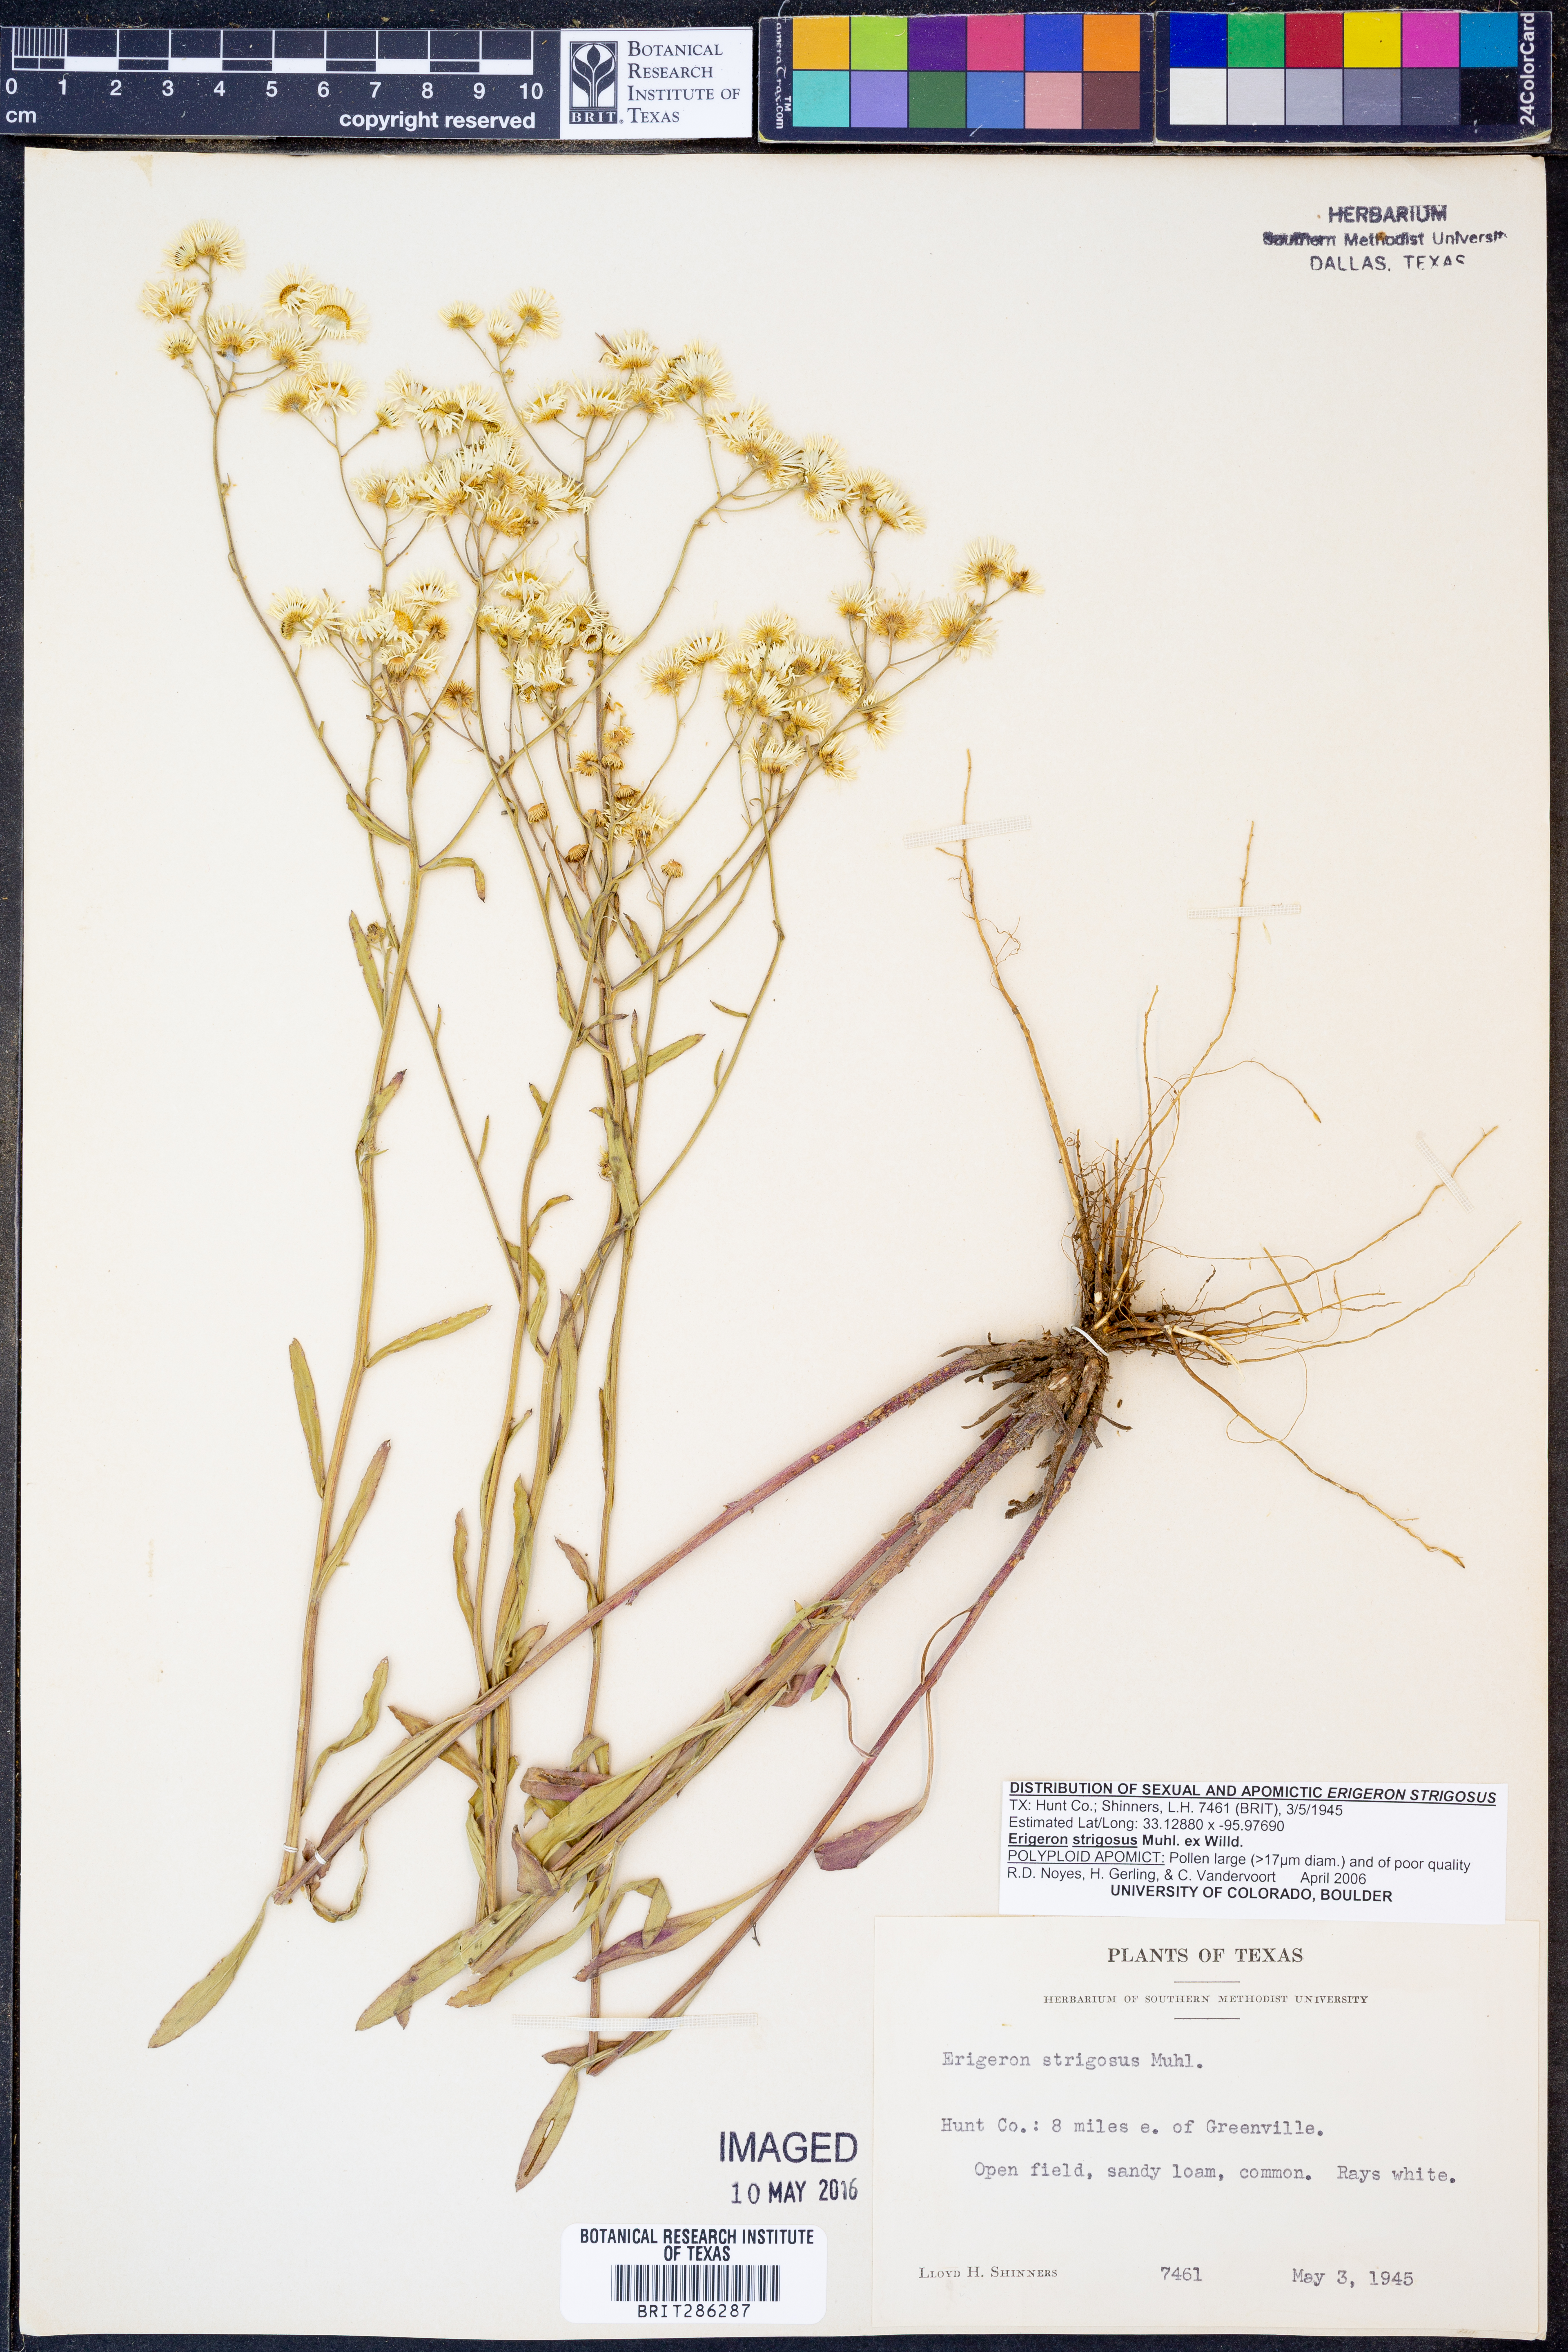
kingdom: Plantae
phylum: Tracheophyta
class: Magnoliopsida
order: Asterales
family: Asteraceae
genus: Erigeron
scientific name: Erigeron strigosus
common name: Common eastern fleabane
